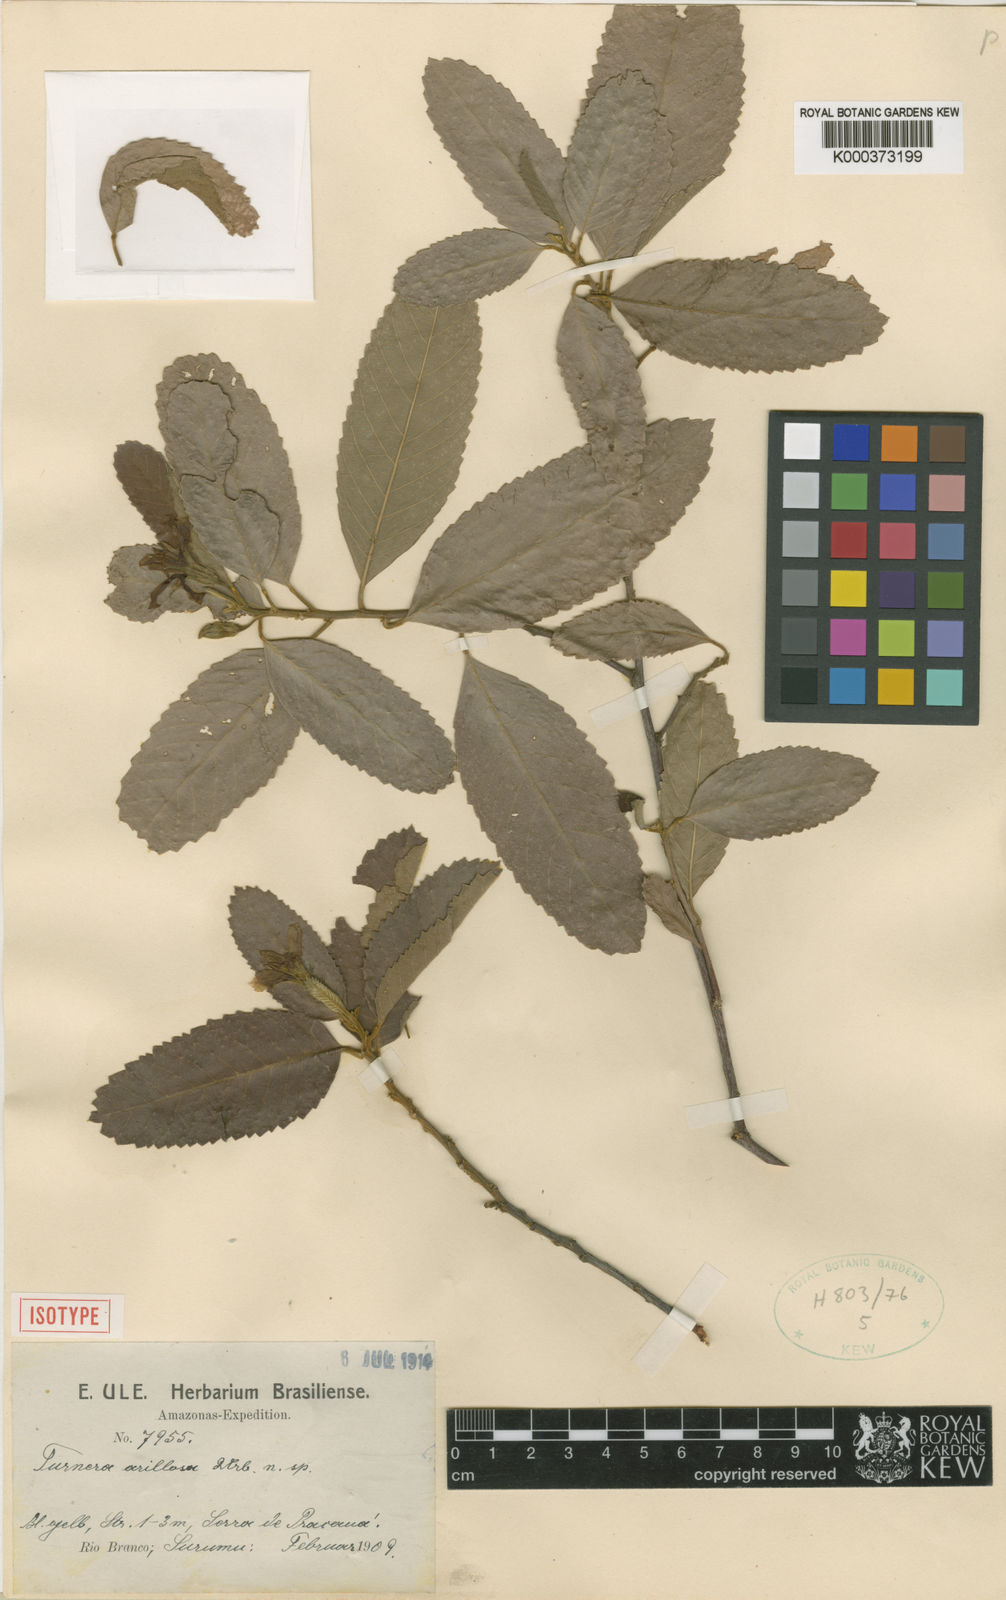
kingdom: Plantae
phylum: Tracheophyta
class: Magnoliopsida
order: Malpighiales
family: Turneraceae
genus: Turnera
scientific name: Turnera blanchetiana
